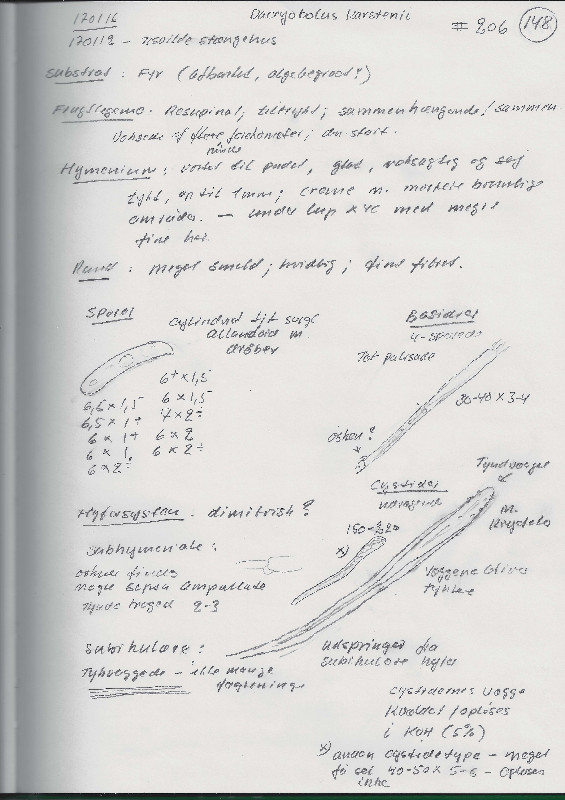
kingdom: Fungi
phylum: Basidiomycota
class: Agaricomycetes
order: Polyporales
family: Dacryobolaceae
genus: Dacryobolus
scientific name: Dacryobolus karstenii
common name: glat vulkanskorpe
